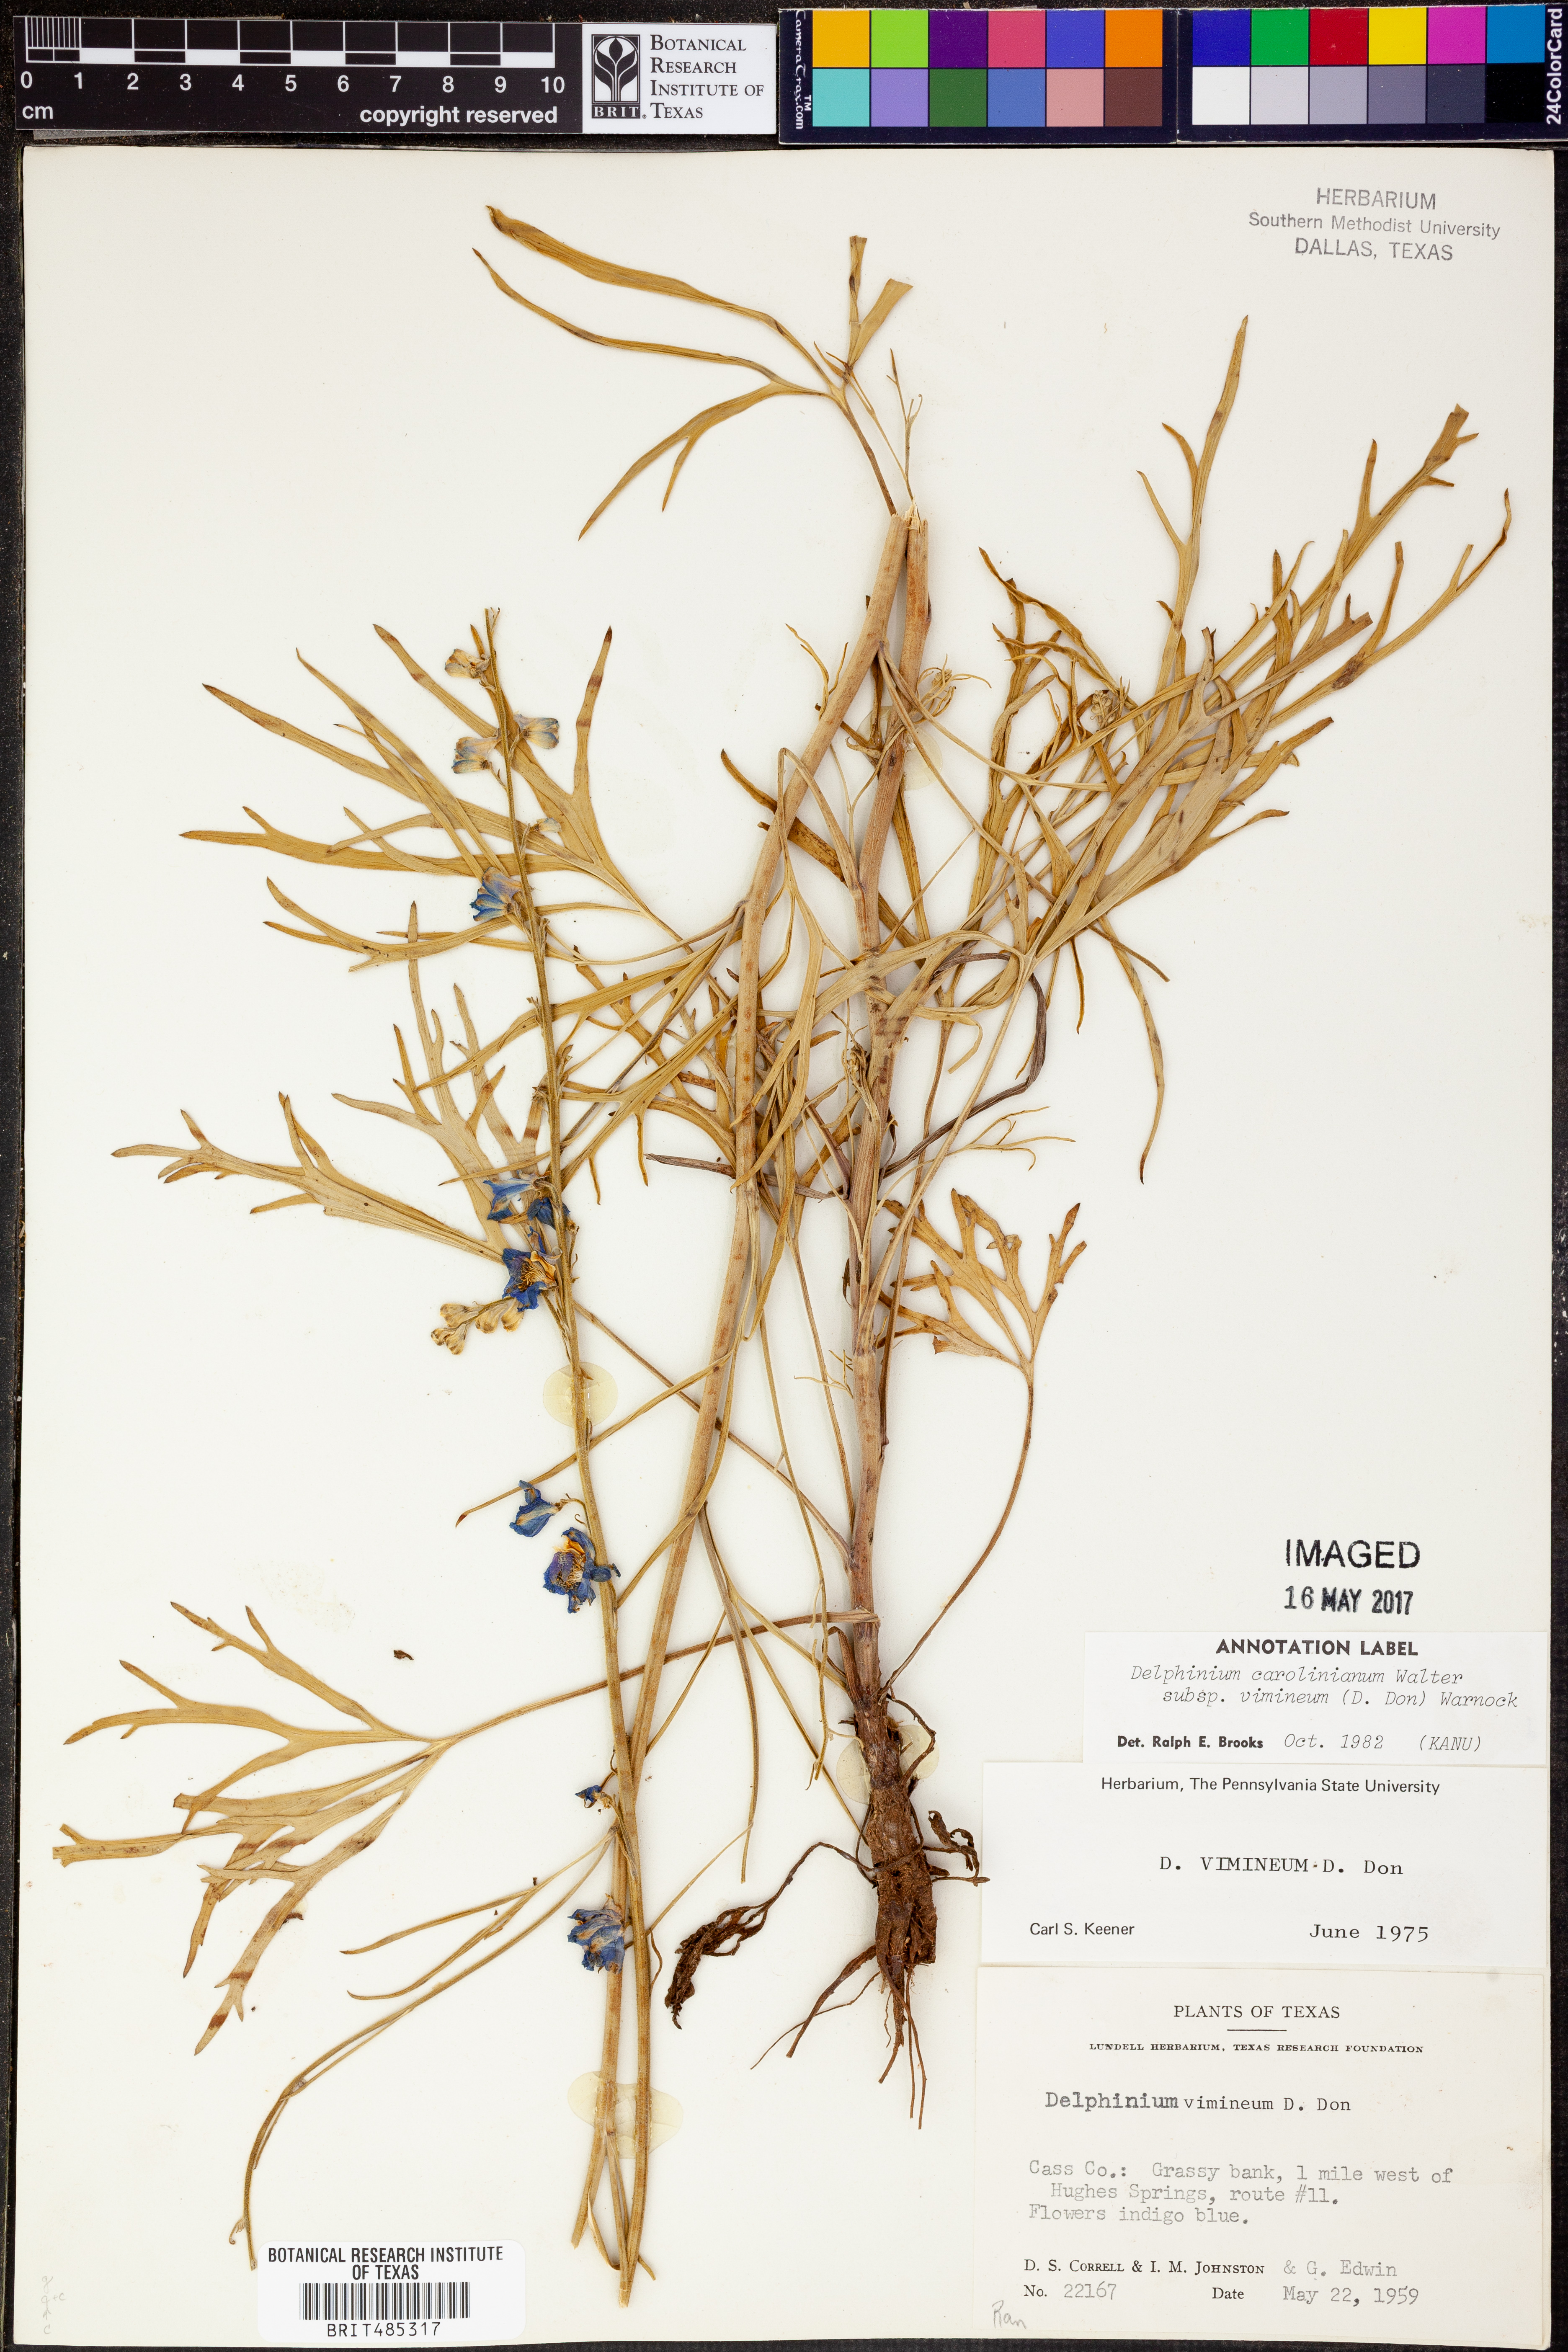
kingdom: Plantae
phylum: Tracheophyta
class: Magnoliopsida
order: Ranunculales
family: Ranunculaceae
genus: Delphinium
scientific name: Delphinium carolinianum
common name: Carolina larkspur
